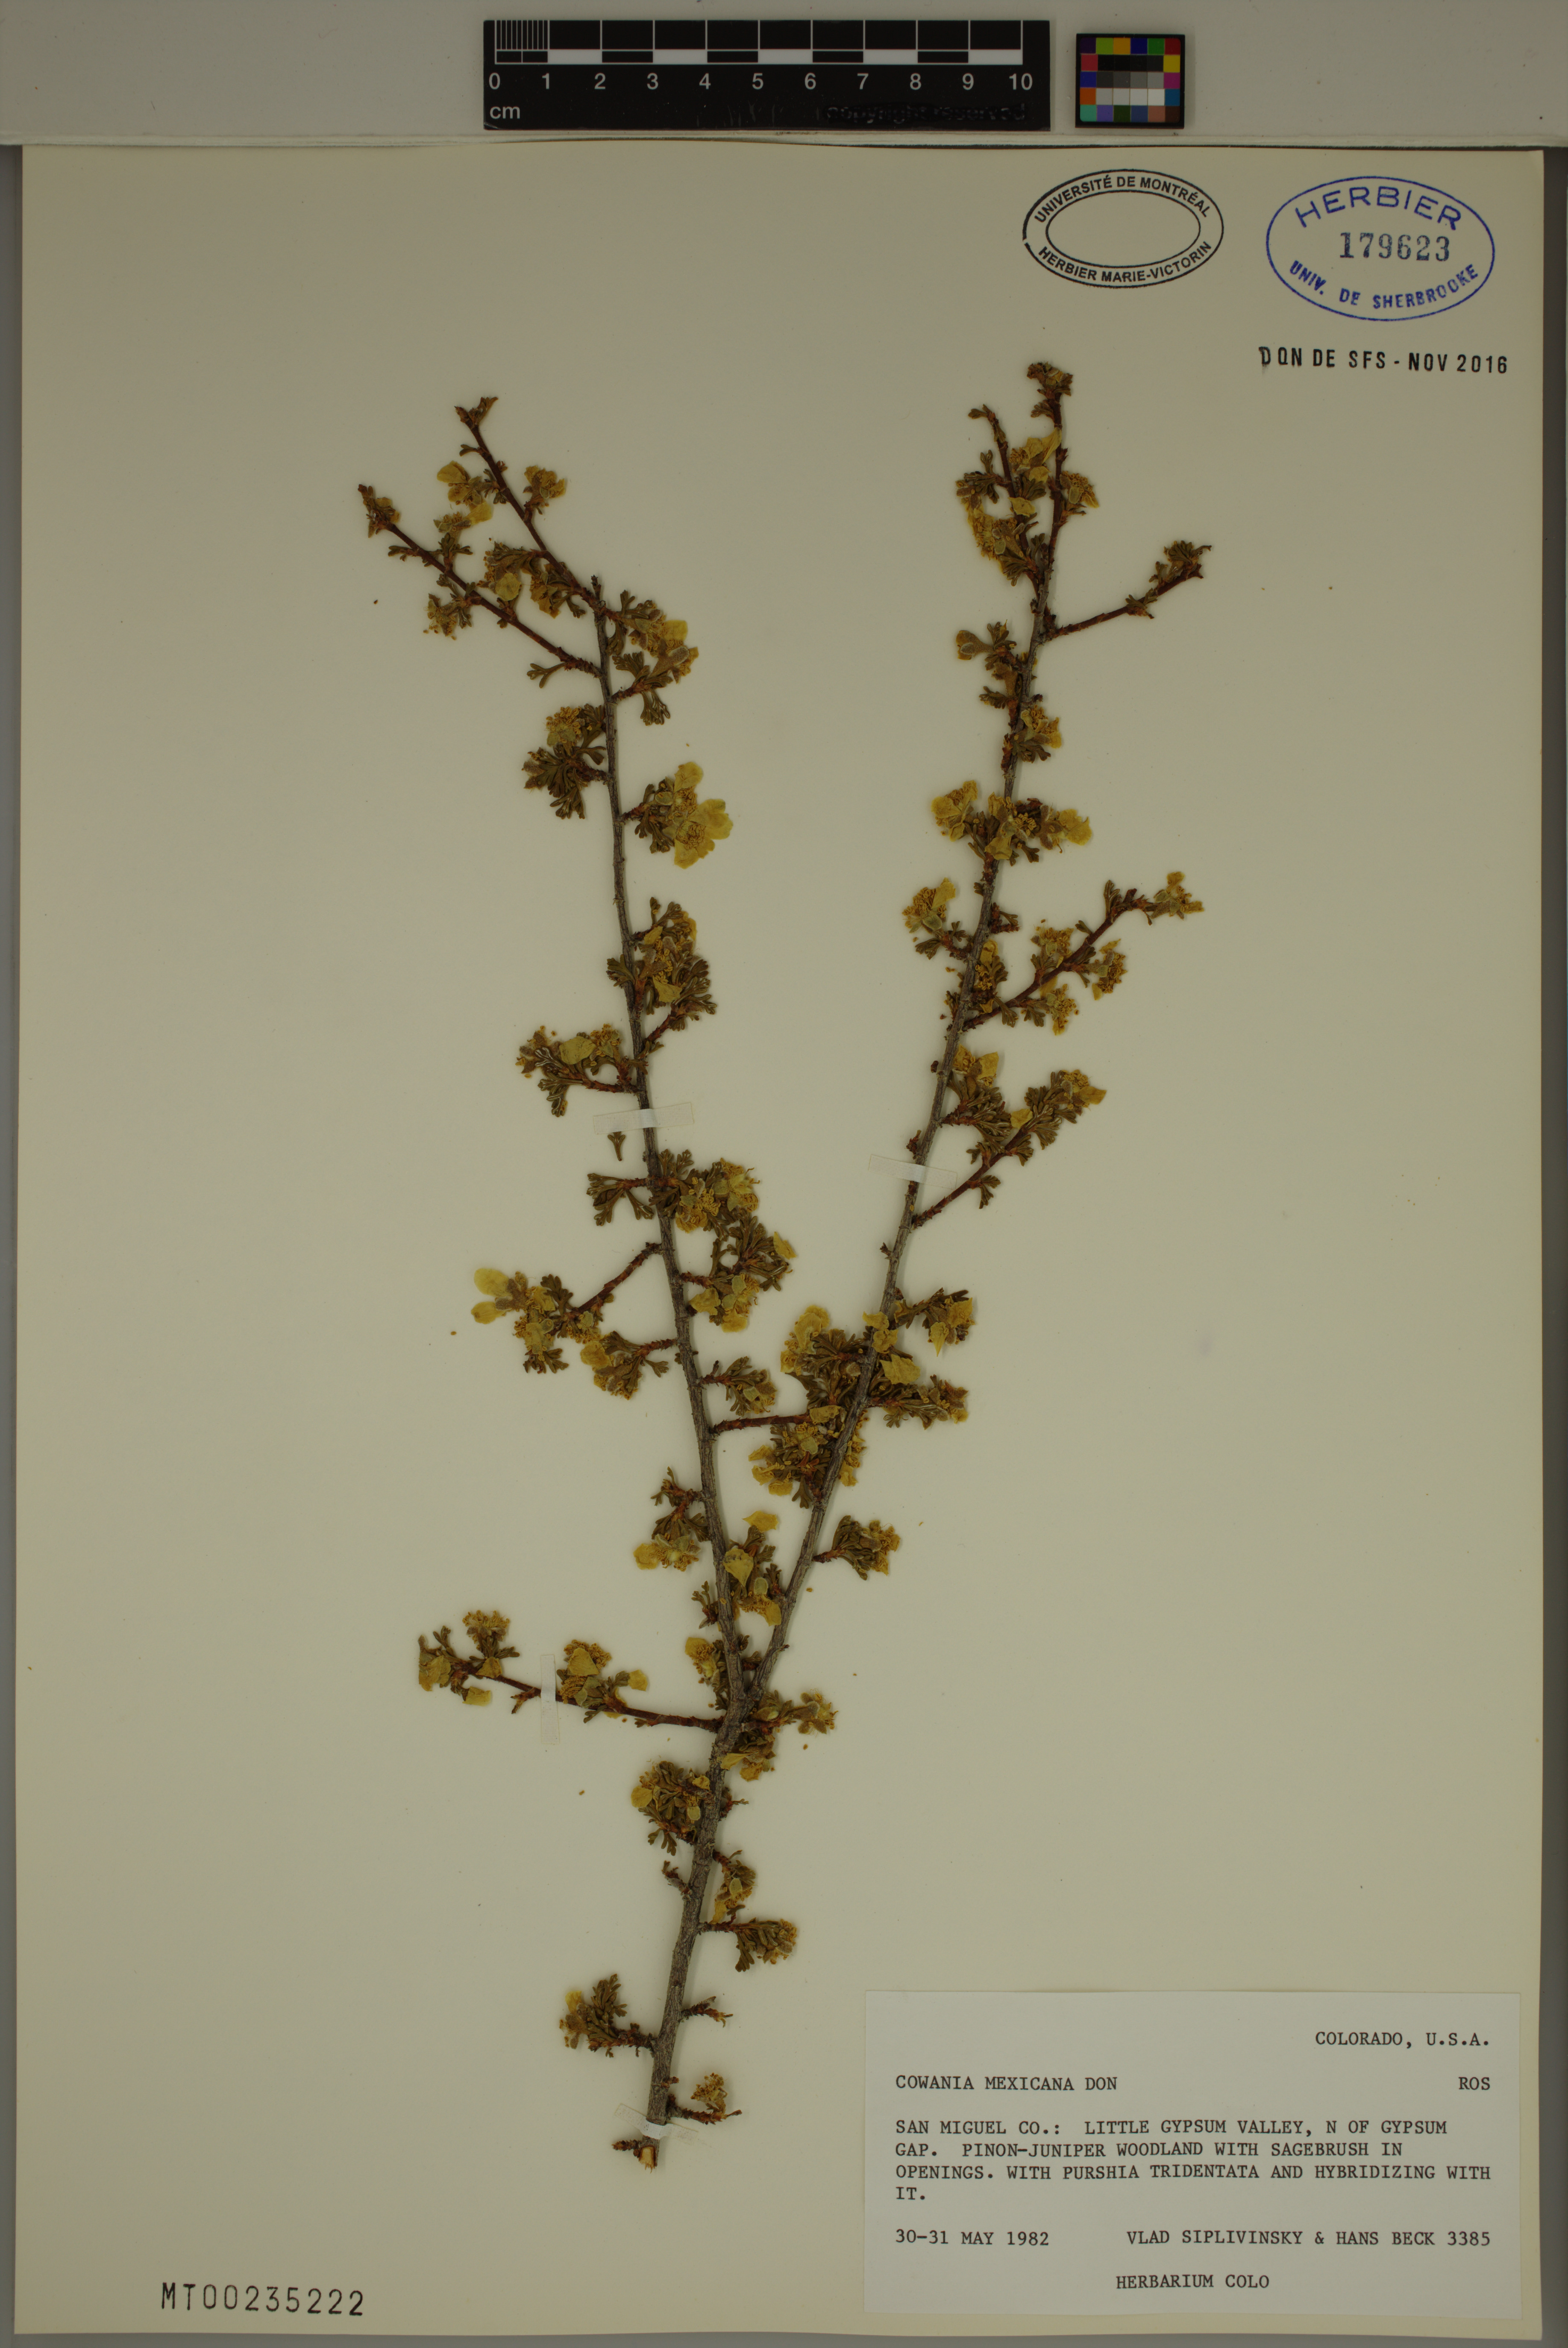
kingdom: Plantae
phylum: Tracheophyta
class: Magnoliopsida
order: Rosales
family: Rosaceae
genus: Purshia
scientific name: Purshia mexicana
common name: Mexican cliffrose
